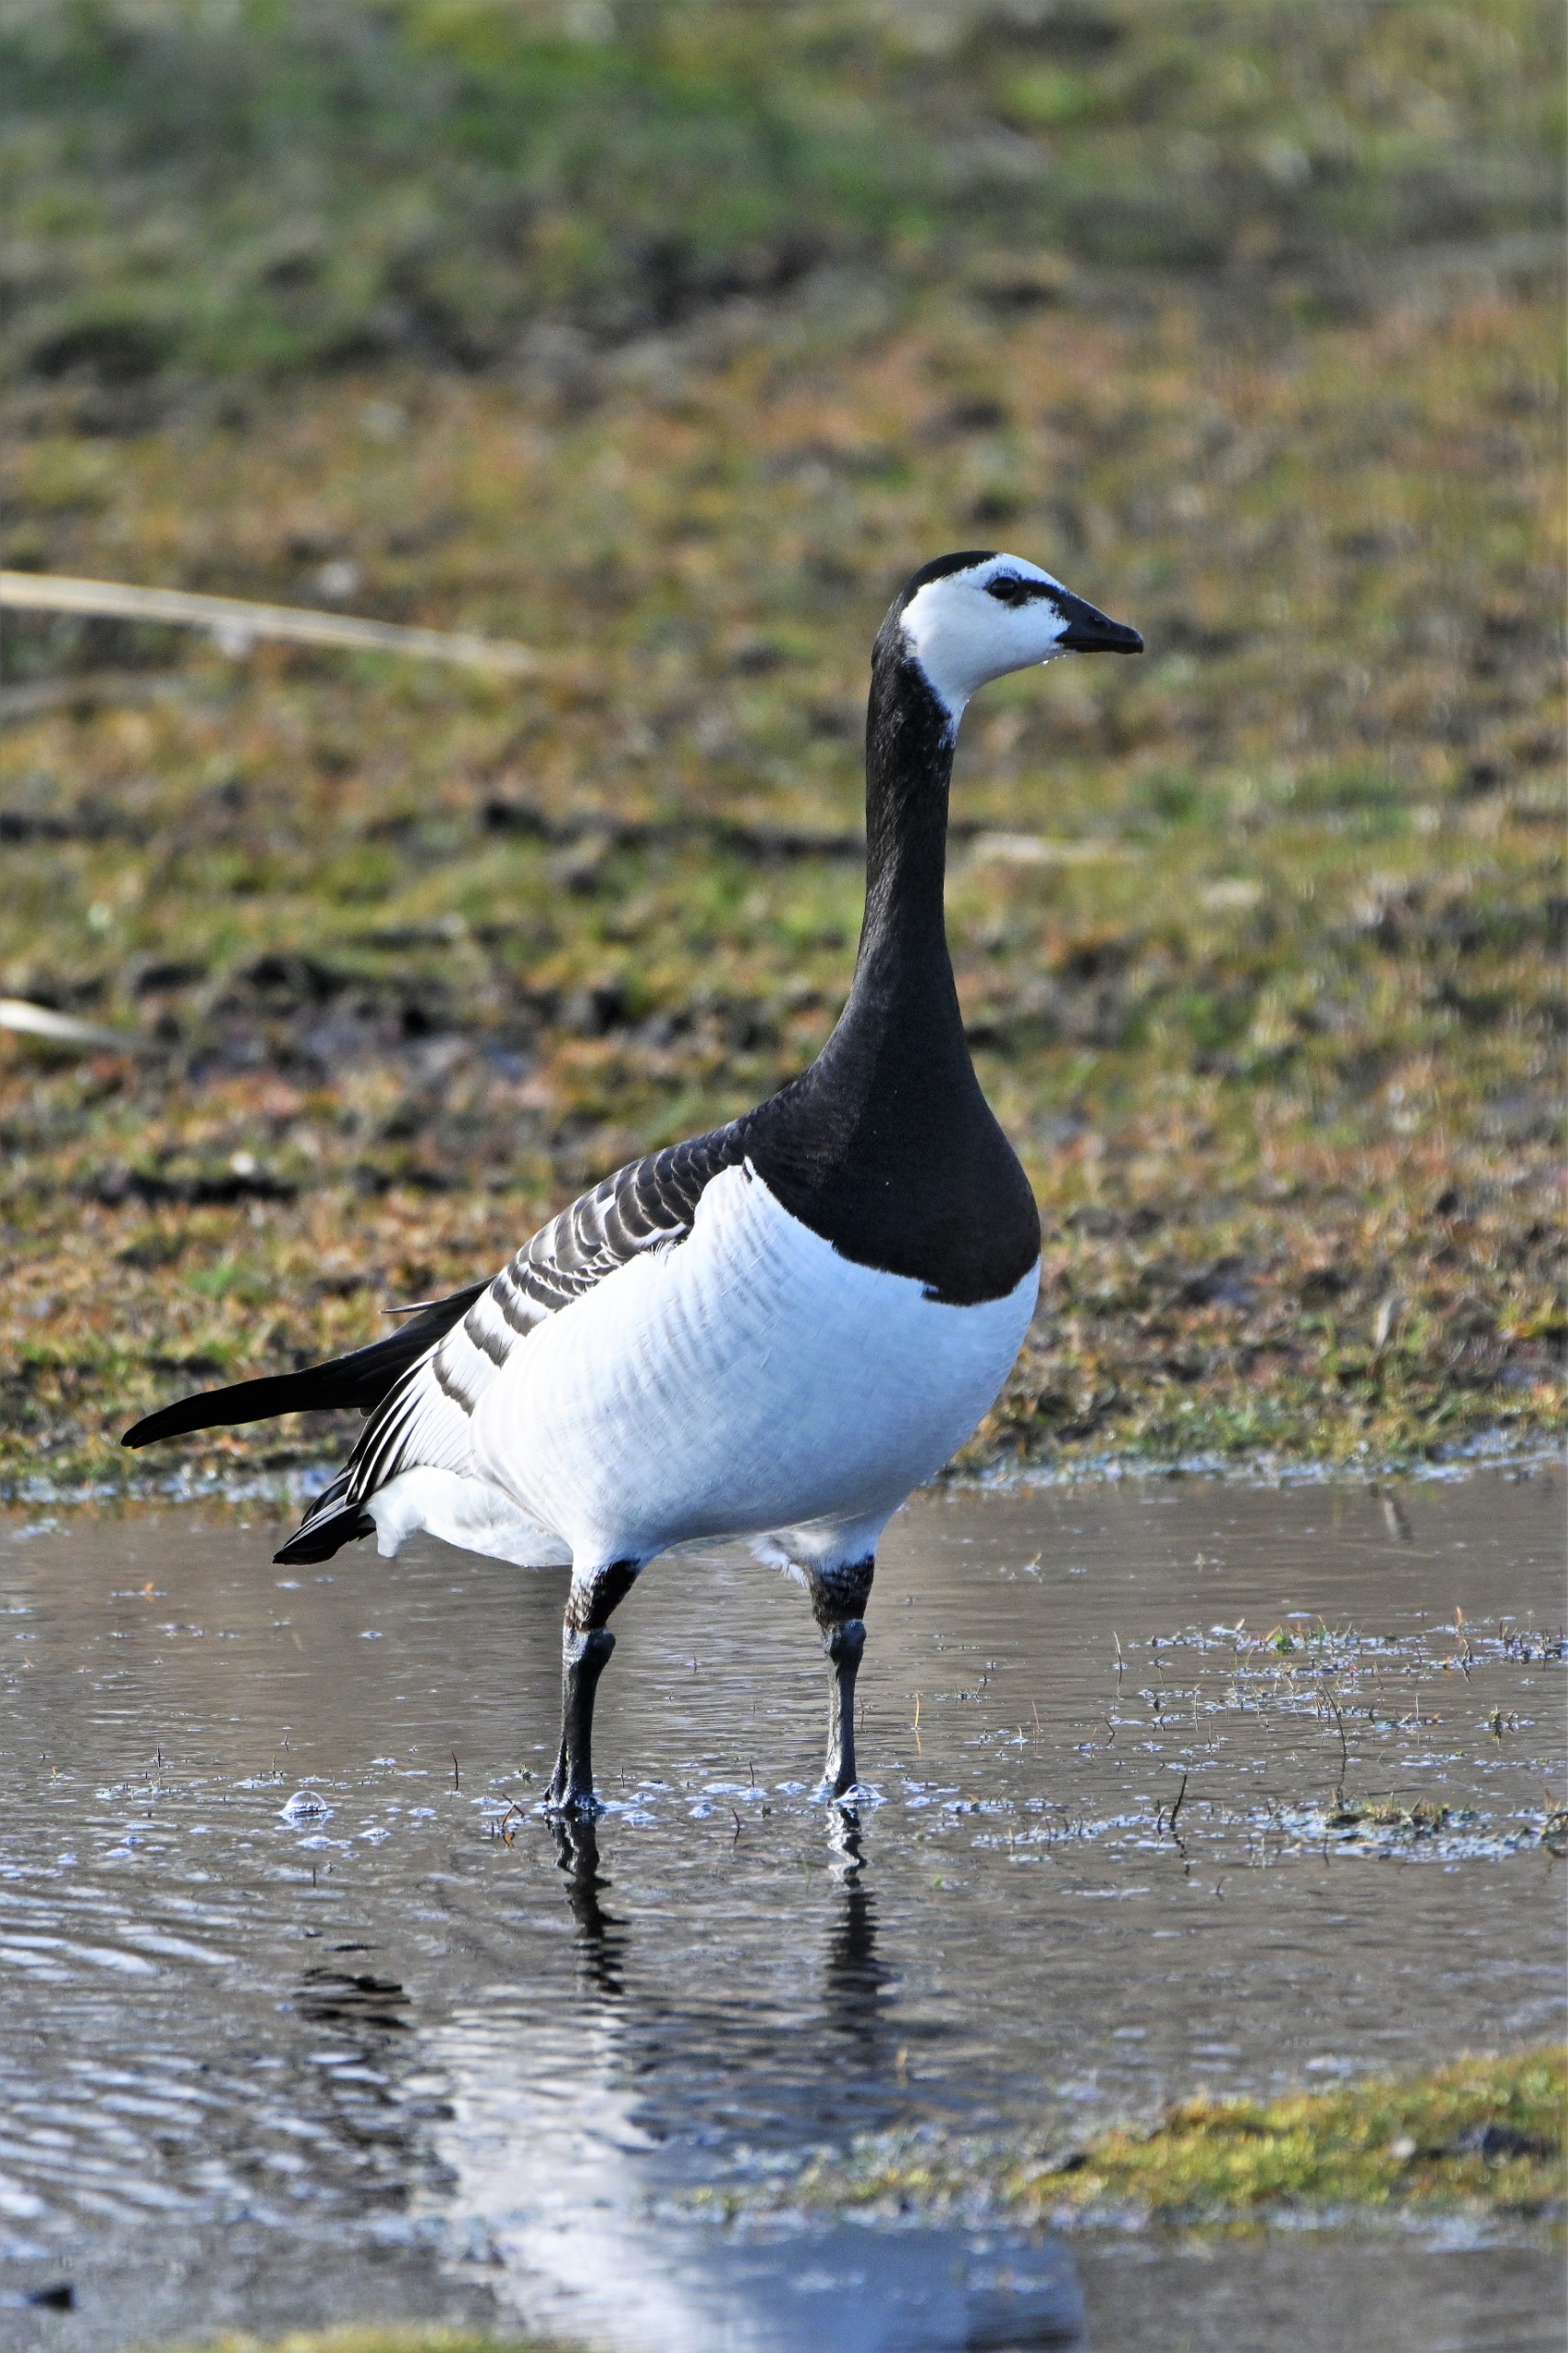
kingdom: Animalia
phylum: Chordata
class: Aves
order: Anseriformes
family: Anatidae
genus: Branta
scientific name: Branta leucopsis
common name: Bramgås
